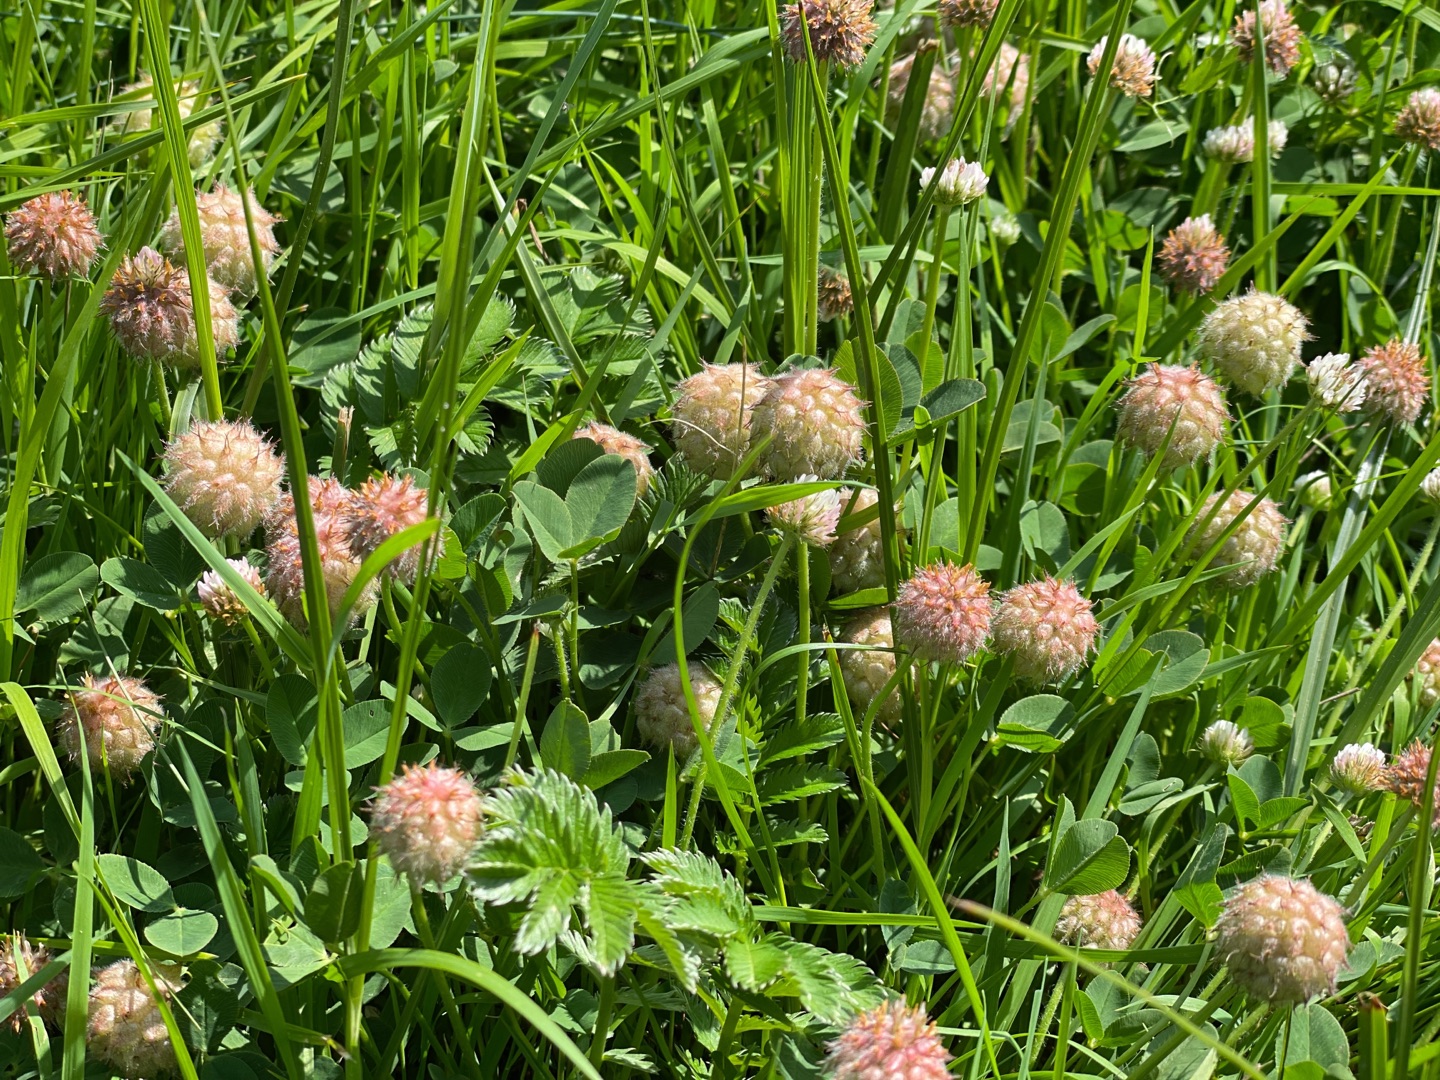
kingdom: Plantae
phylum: Tracheophyta
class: Magnoliopsida
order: Fabales
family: Fabaceae
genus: Trifolium
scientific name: Trifolium fragiferum
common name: Jordbær-kløver
